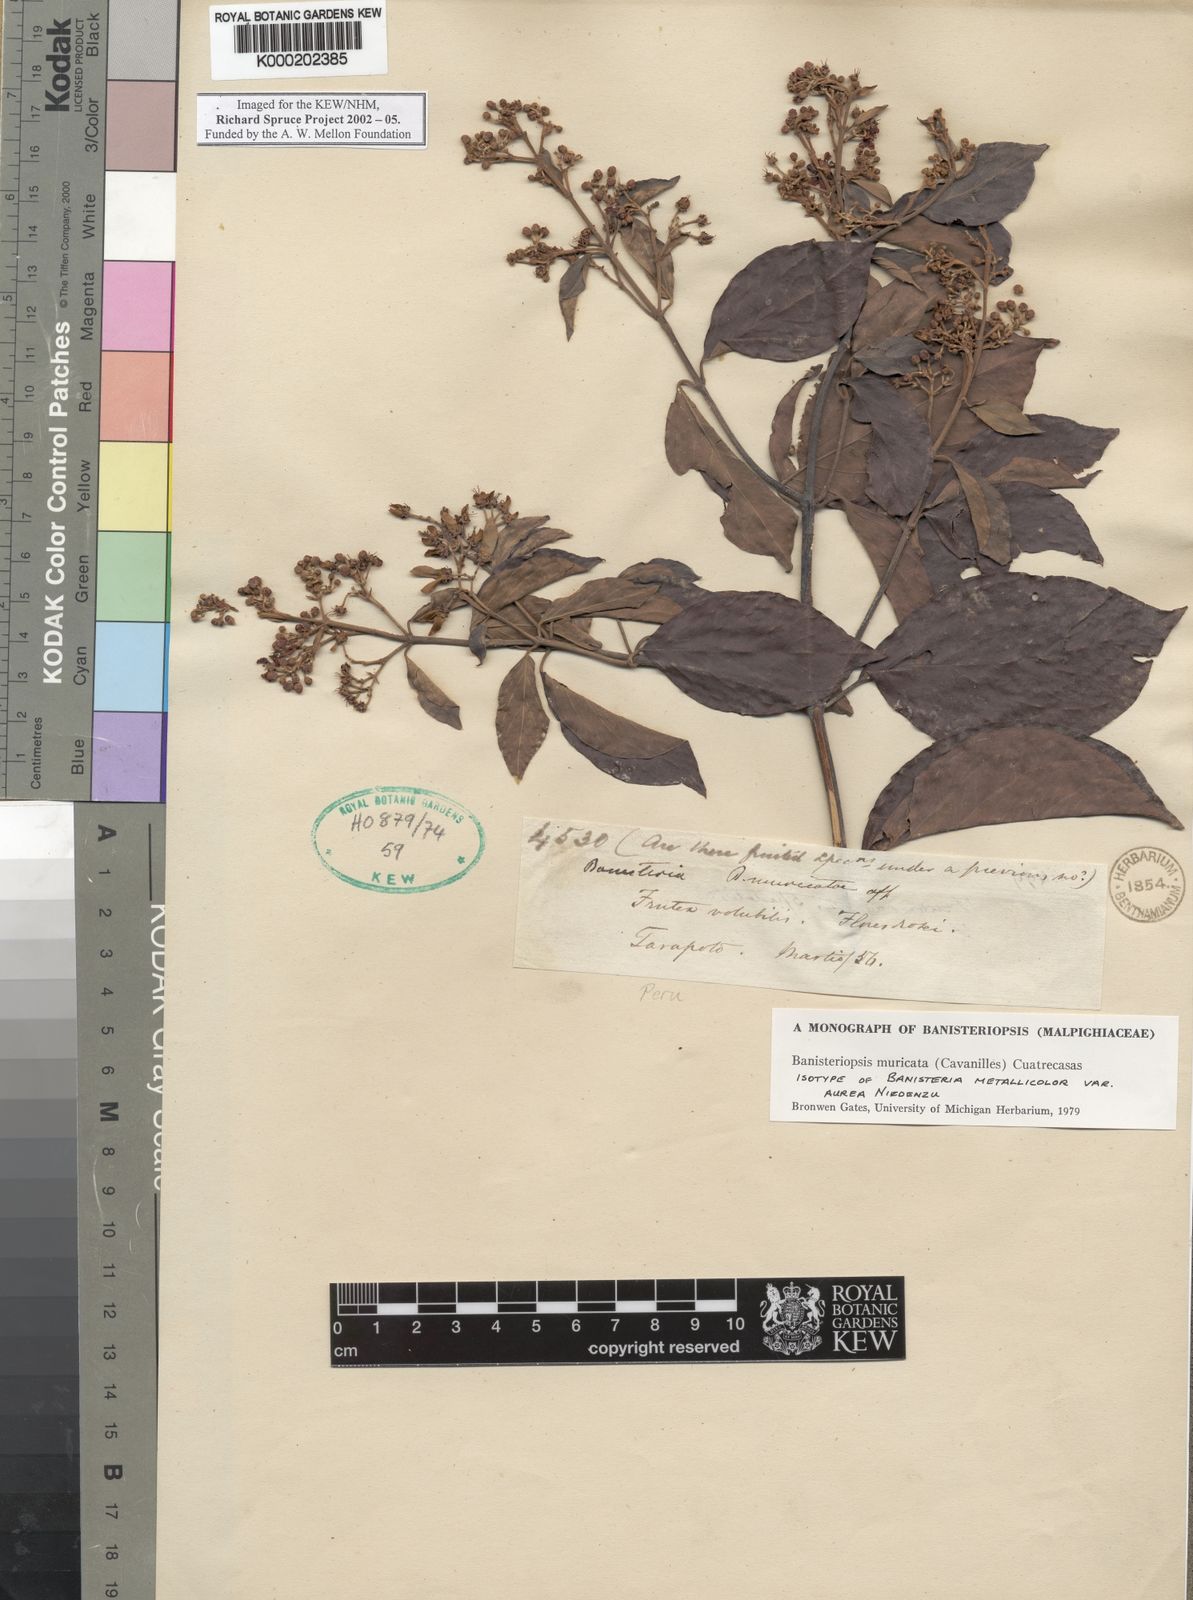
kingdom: Plantae
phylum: Tracheophyta
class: Magnoliopsida
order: Malpighiales
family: Malpighiaceae
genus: Banisteriopsis
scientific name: Banisteriopsis muricata
